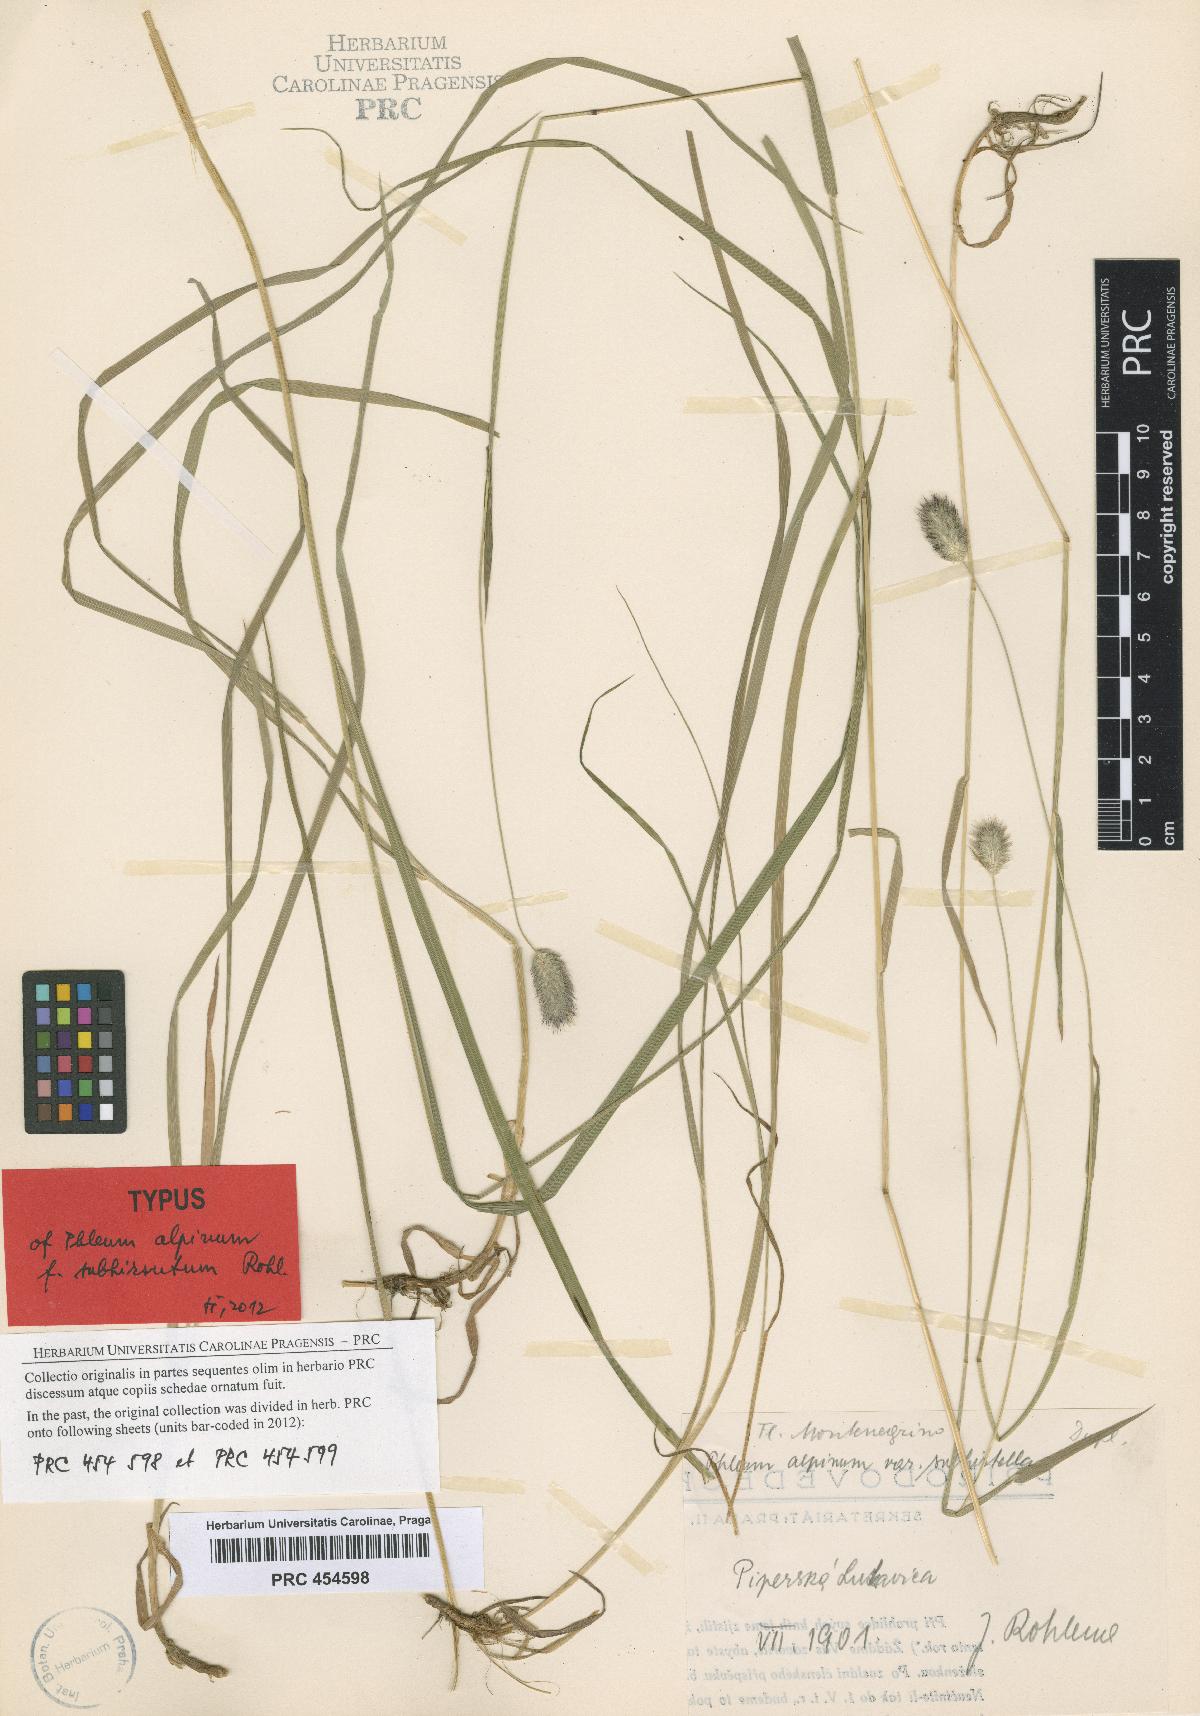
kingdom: Plantae
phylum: Tracheophyta
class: Liliopsida
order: Poales
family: Poaceae
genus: Phleum
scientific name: Phleum alpinum
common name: Alpine cat's-tail
